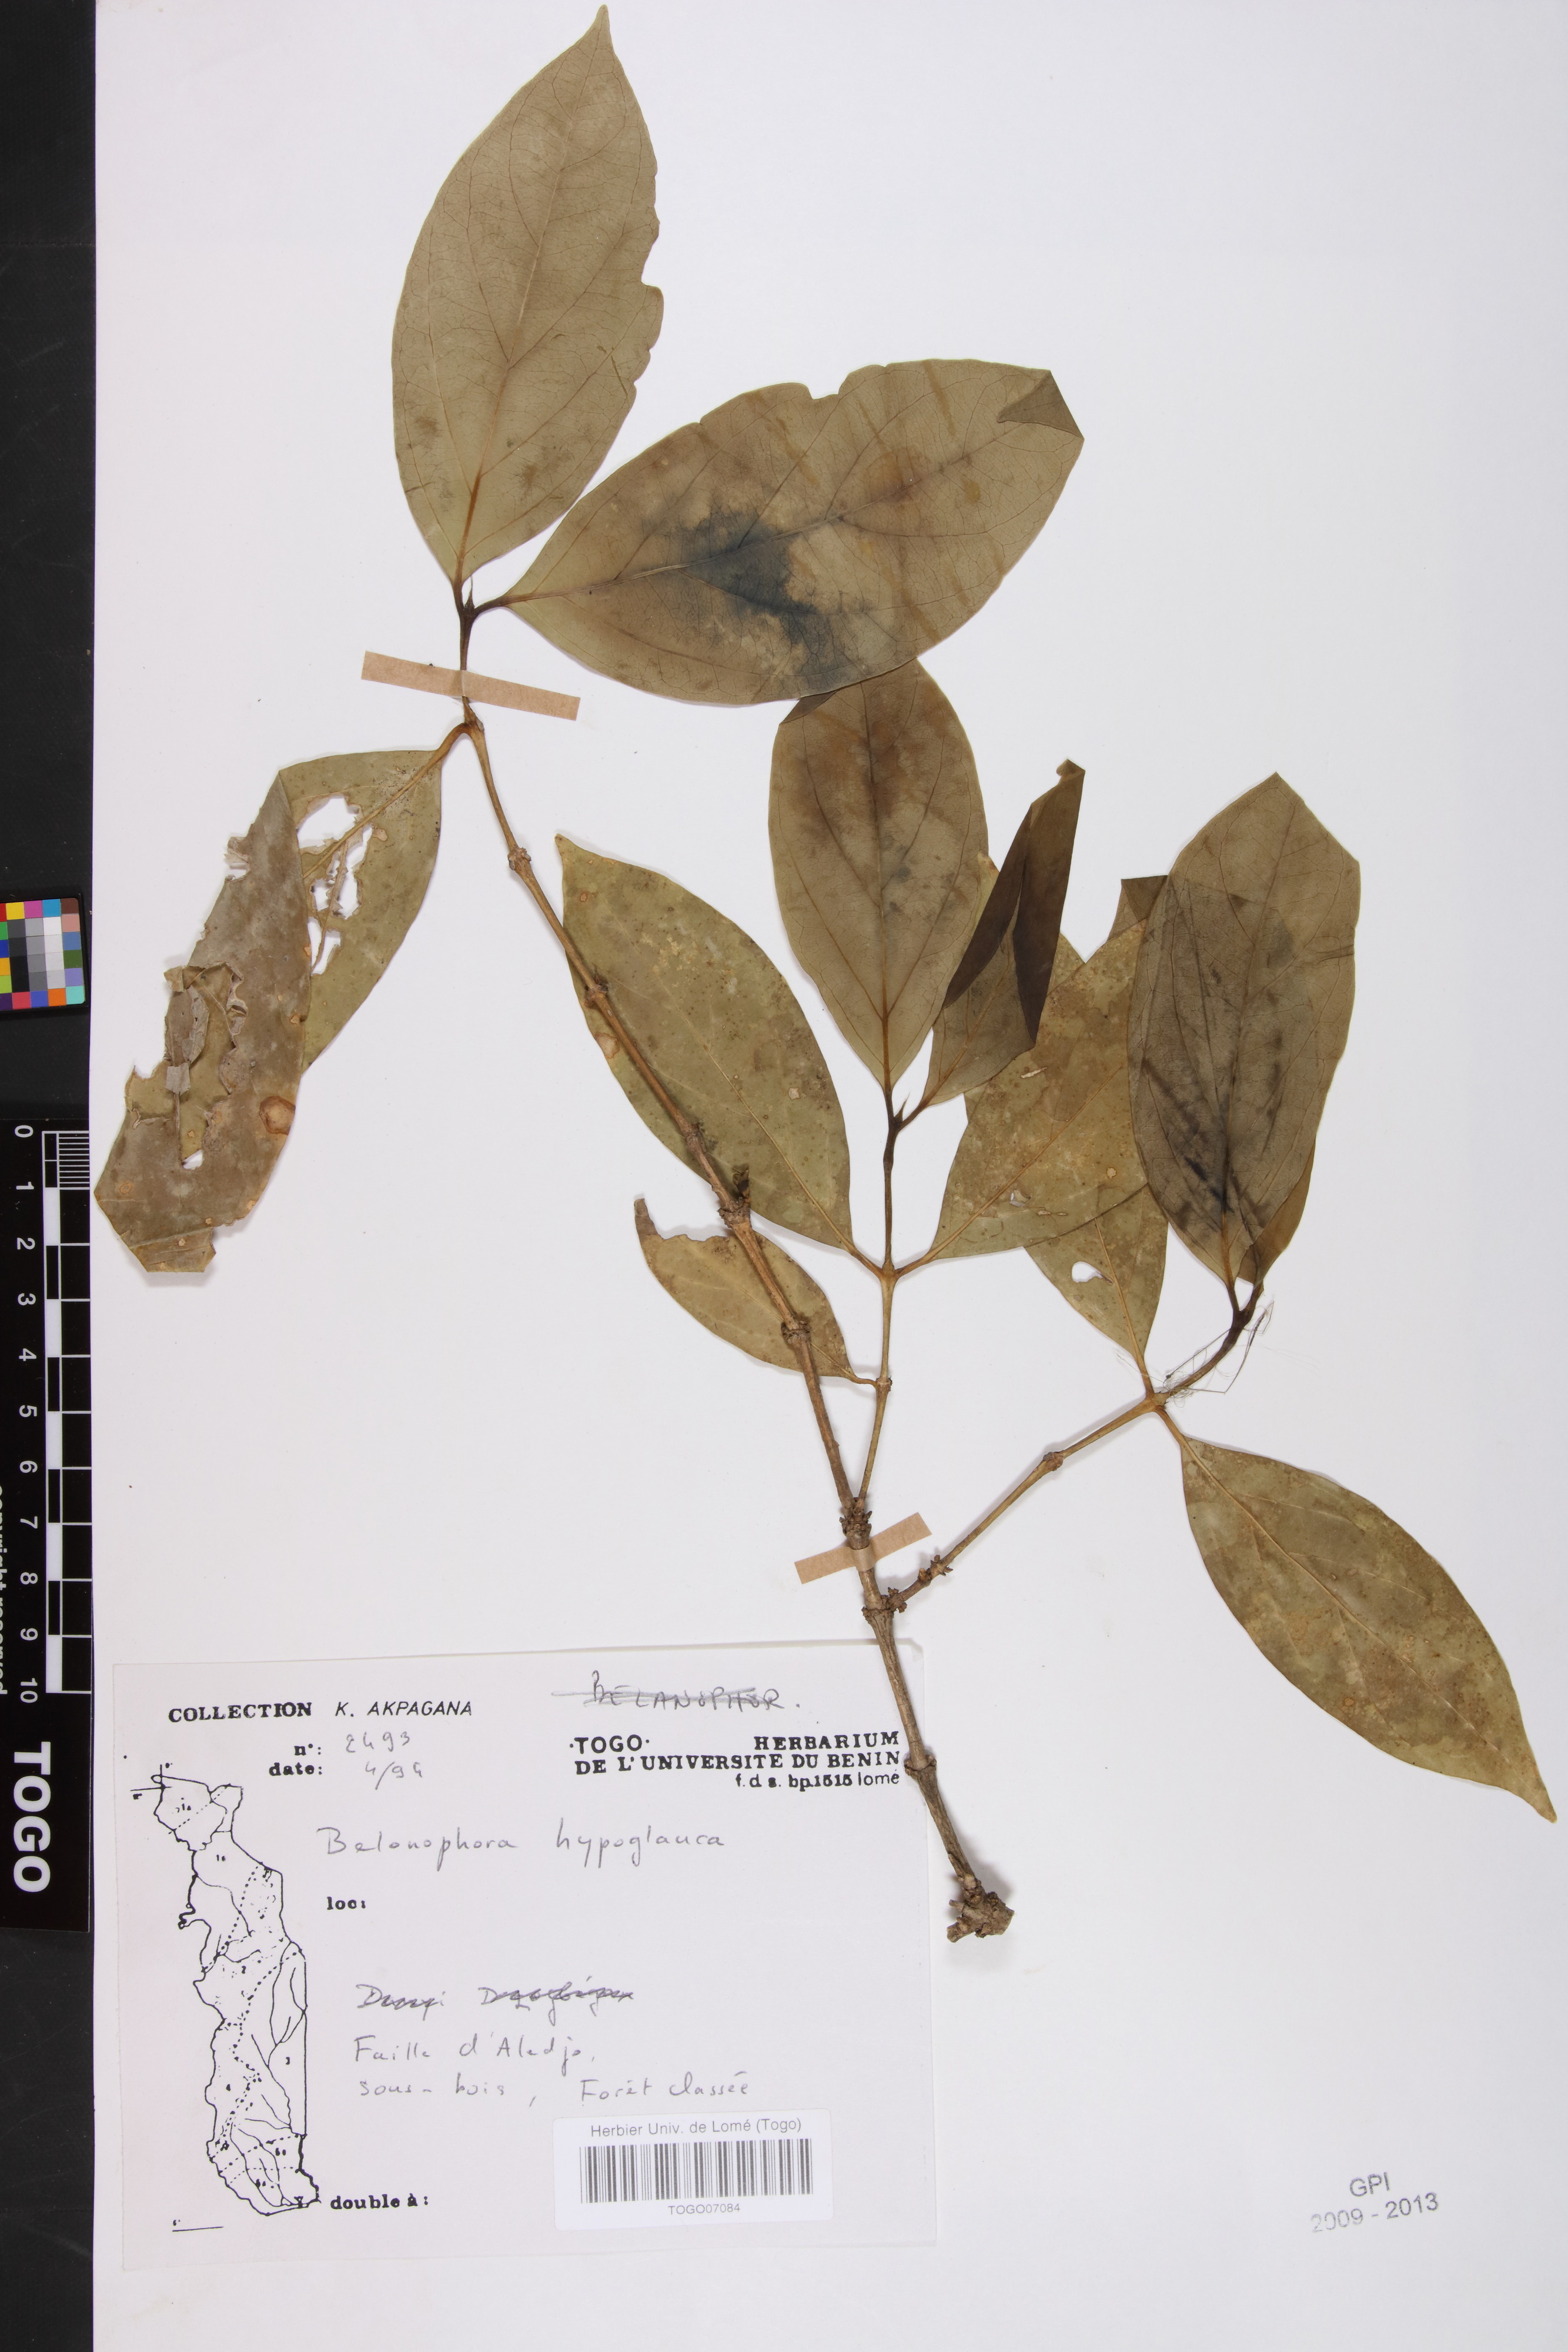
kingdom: Plantae
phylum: Tracheophyta
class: Magnoliopsida
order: Gentianales
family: Rubiaceae
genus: Belonophora
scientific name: Belonophora coffeoides
